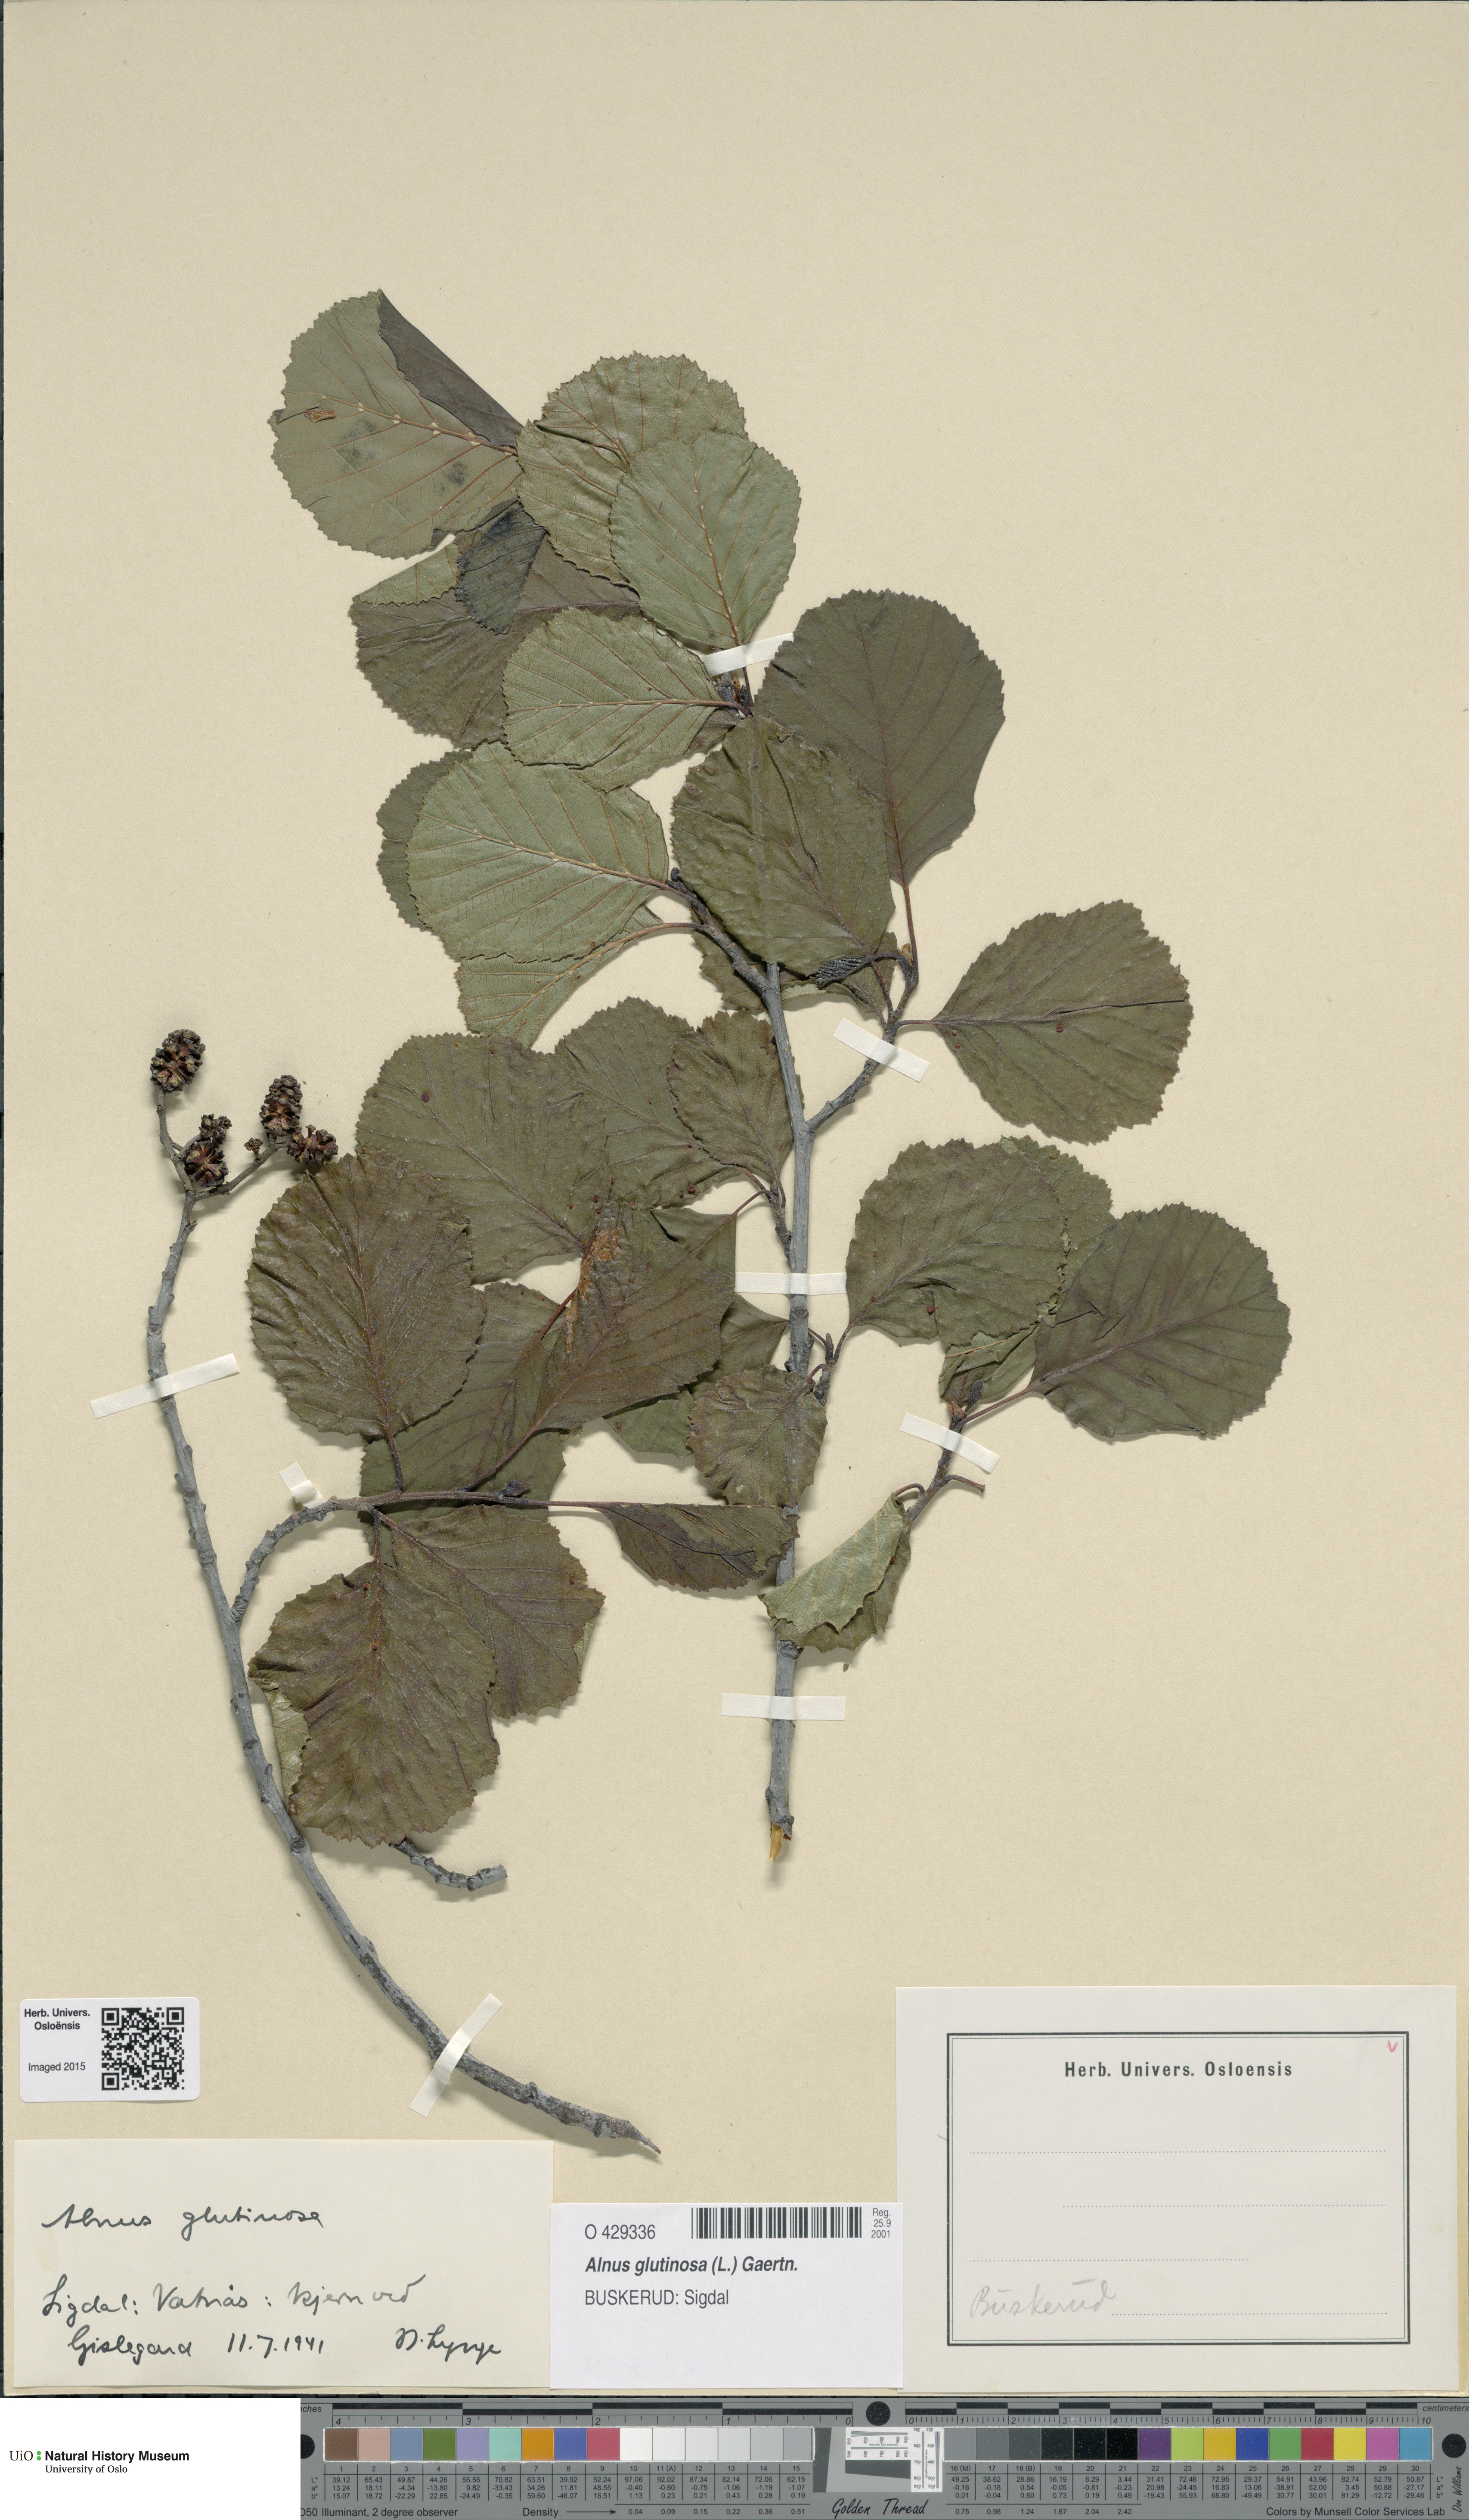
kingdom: Plantae
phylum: Tracheophyta
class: Magnoliopsida
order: Fagales
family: Betulaceae
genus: Alnus
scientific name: Alnus glutinosa
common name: Black alder
